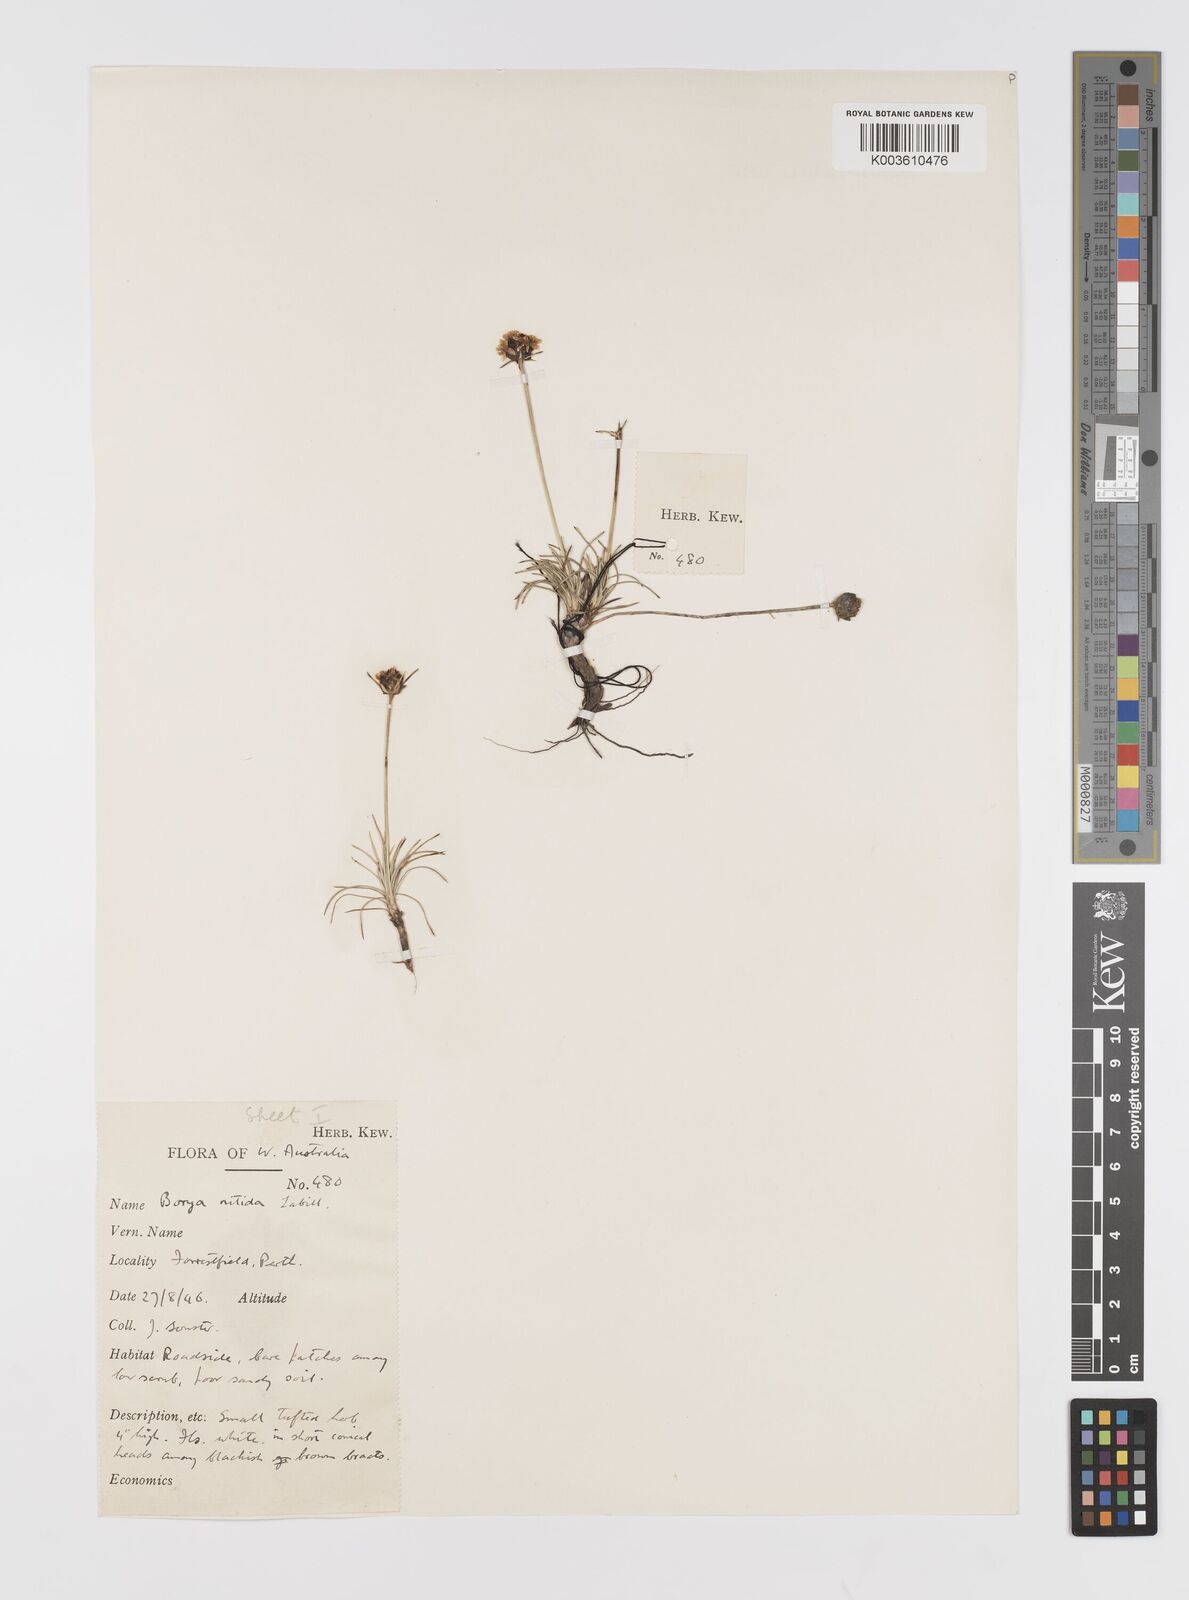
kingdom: Plantae
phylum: Tracheophyta
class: Liliopsida
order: Asparagales
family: Boryaceae
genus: Borya
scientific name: Borya nitida
